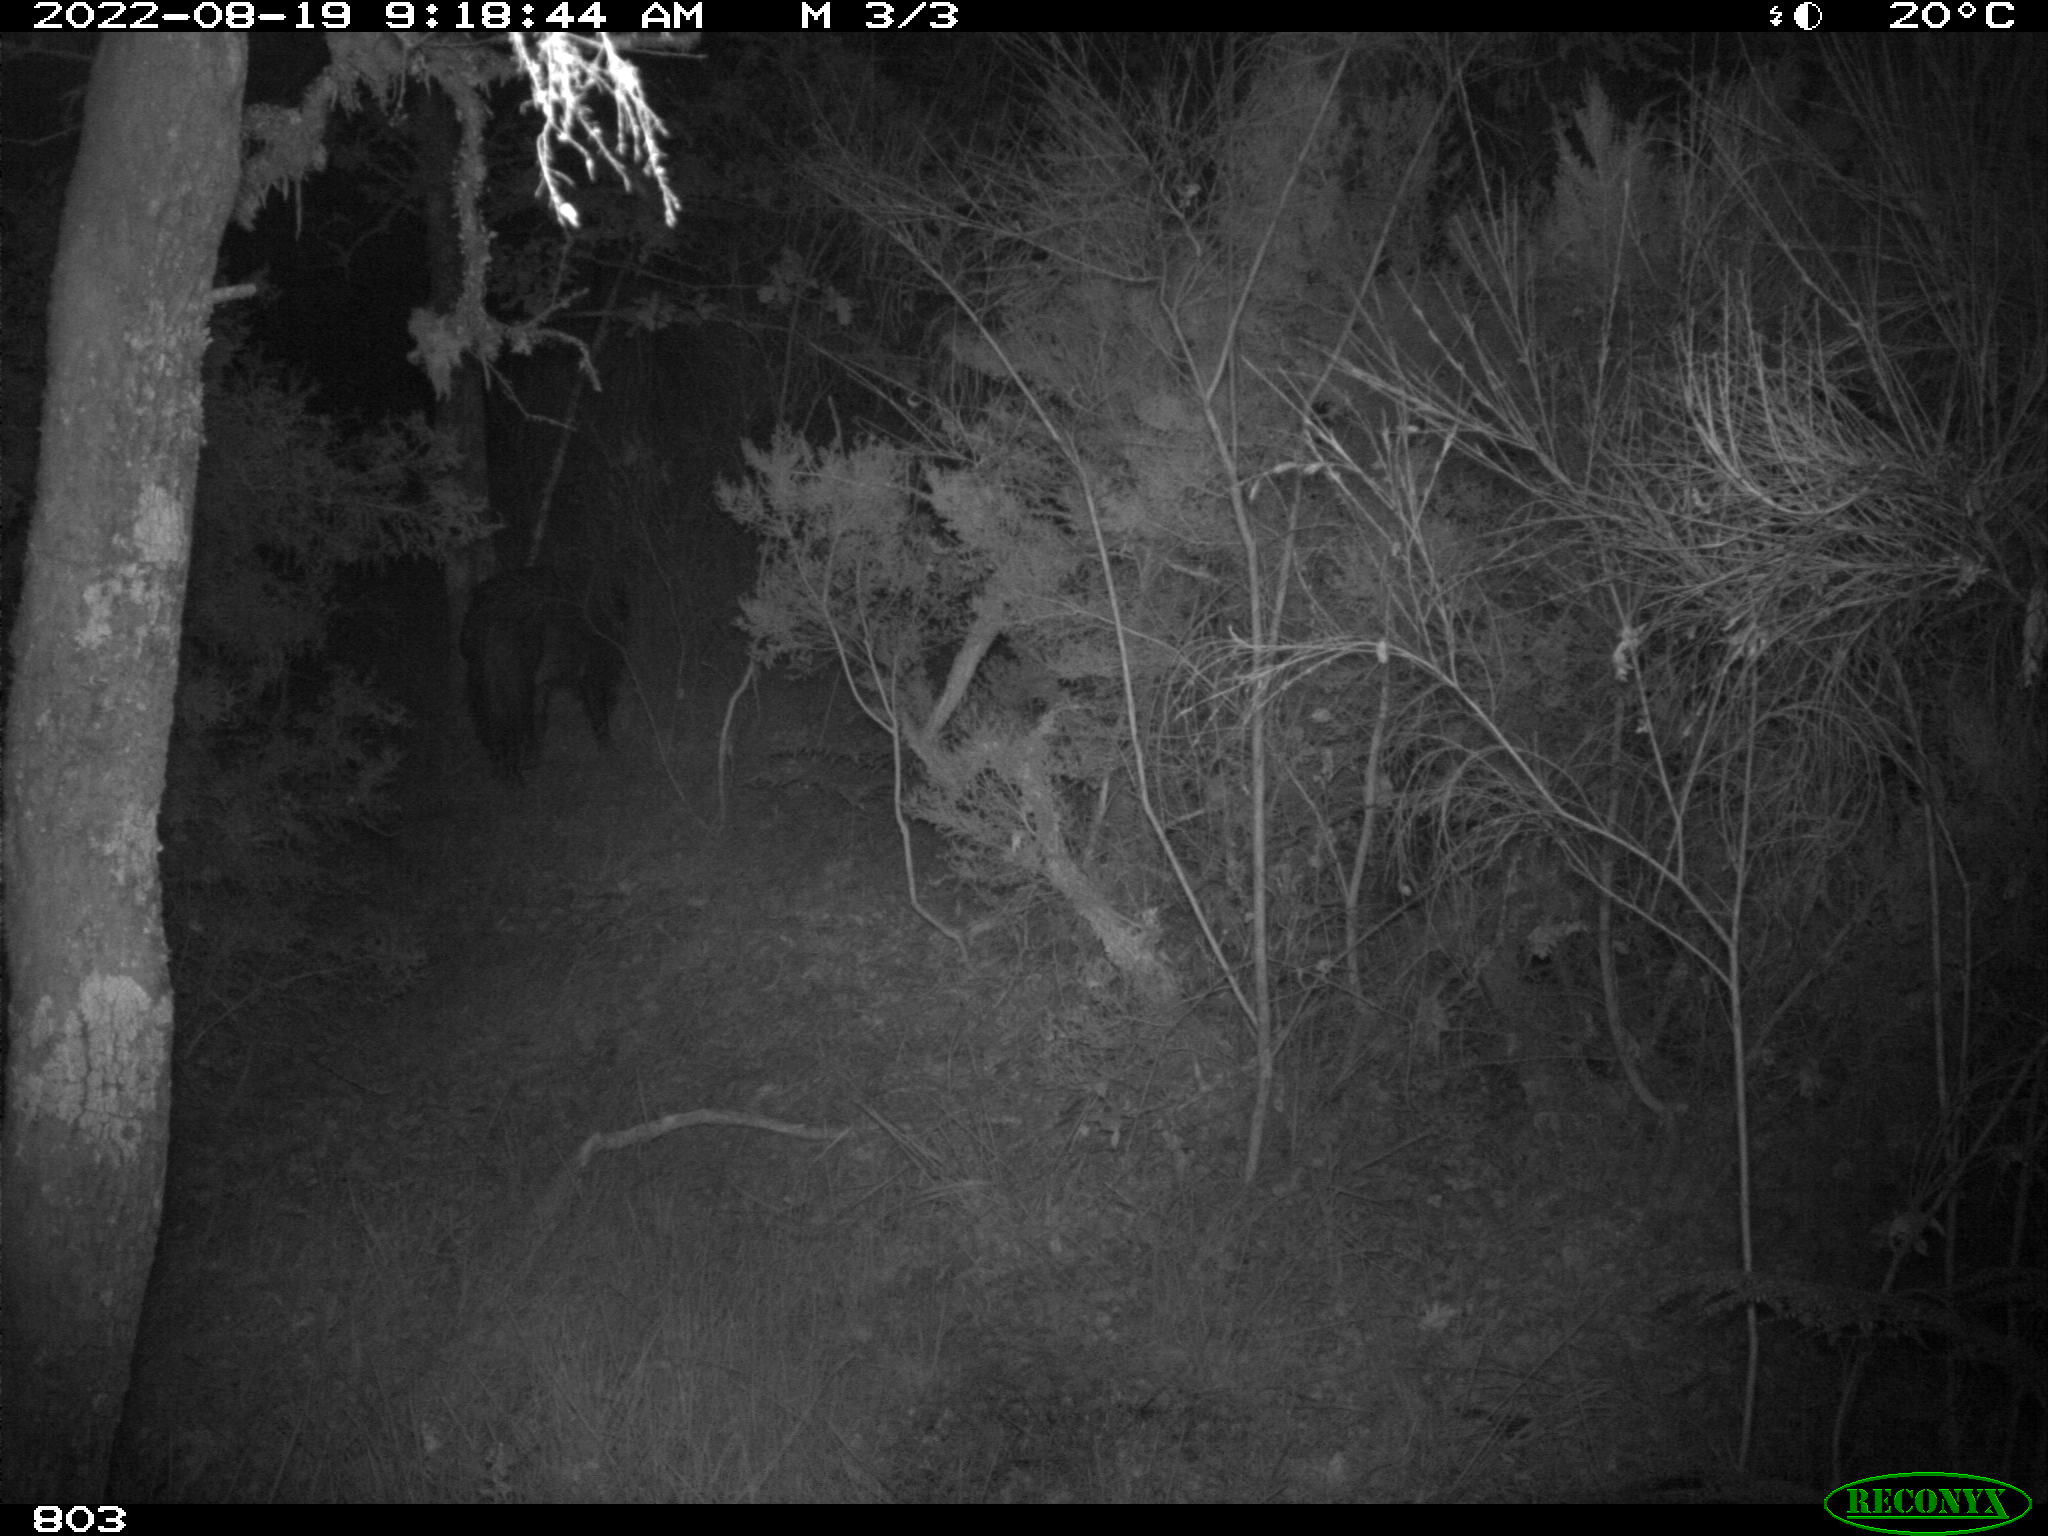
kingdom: Animalia
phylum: Chordata
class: Mammalia
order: Artiodactyla
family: Suidae
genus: Sus
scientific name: Sus scrofa
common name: Wild boar
